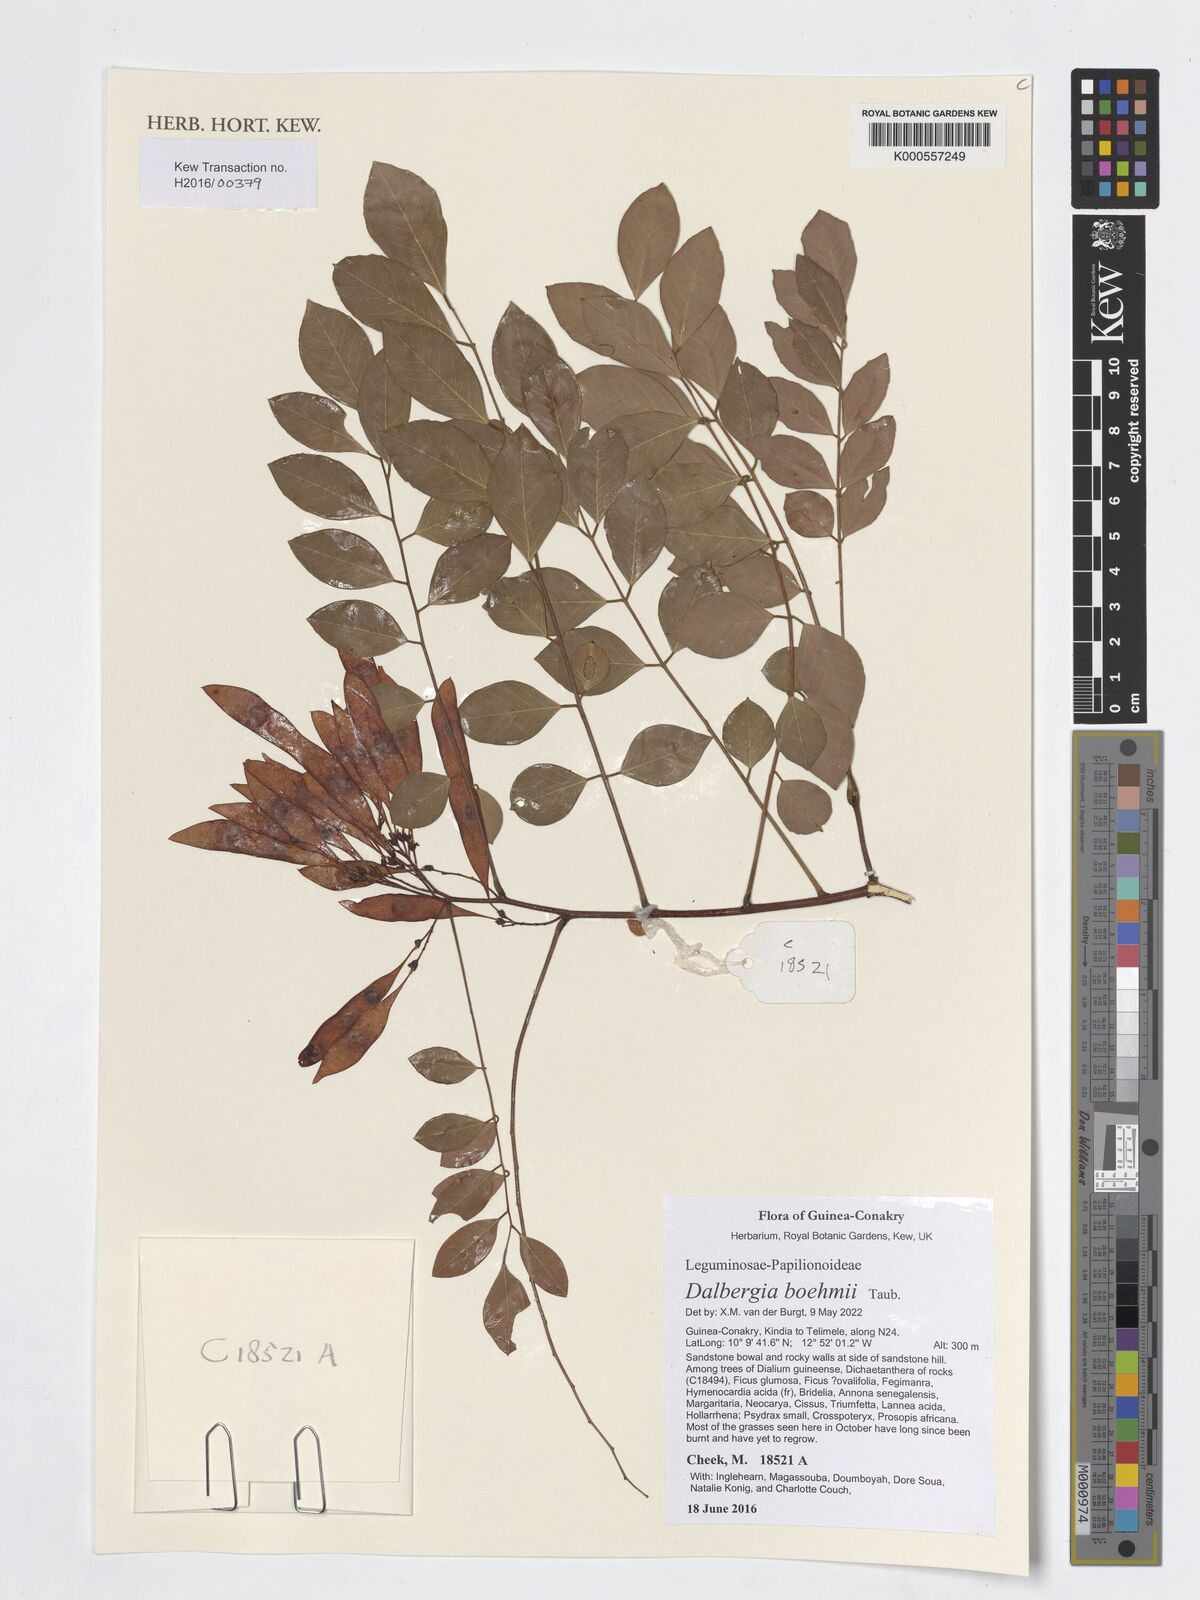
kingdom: Plantae
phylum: Tracheophyta
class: Magnoliopsida
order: Fabales
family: Fabaceae
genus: Dalbergia
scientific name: Dalbergia boehmii
